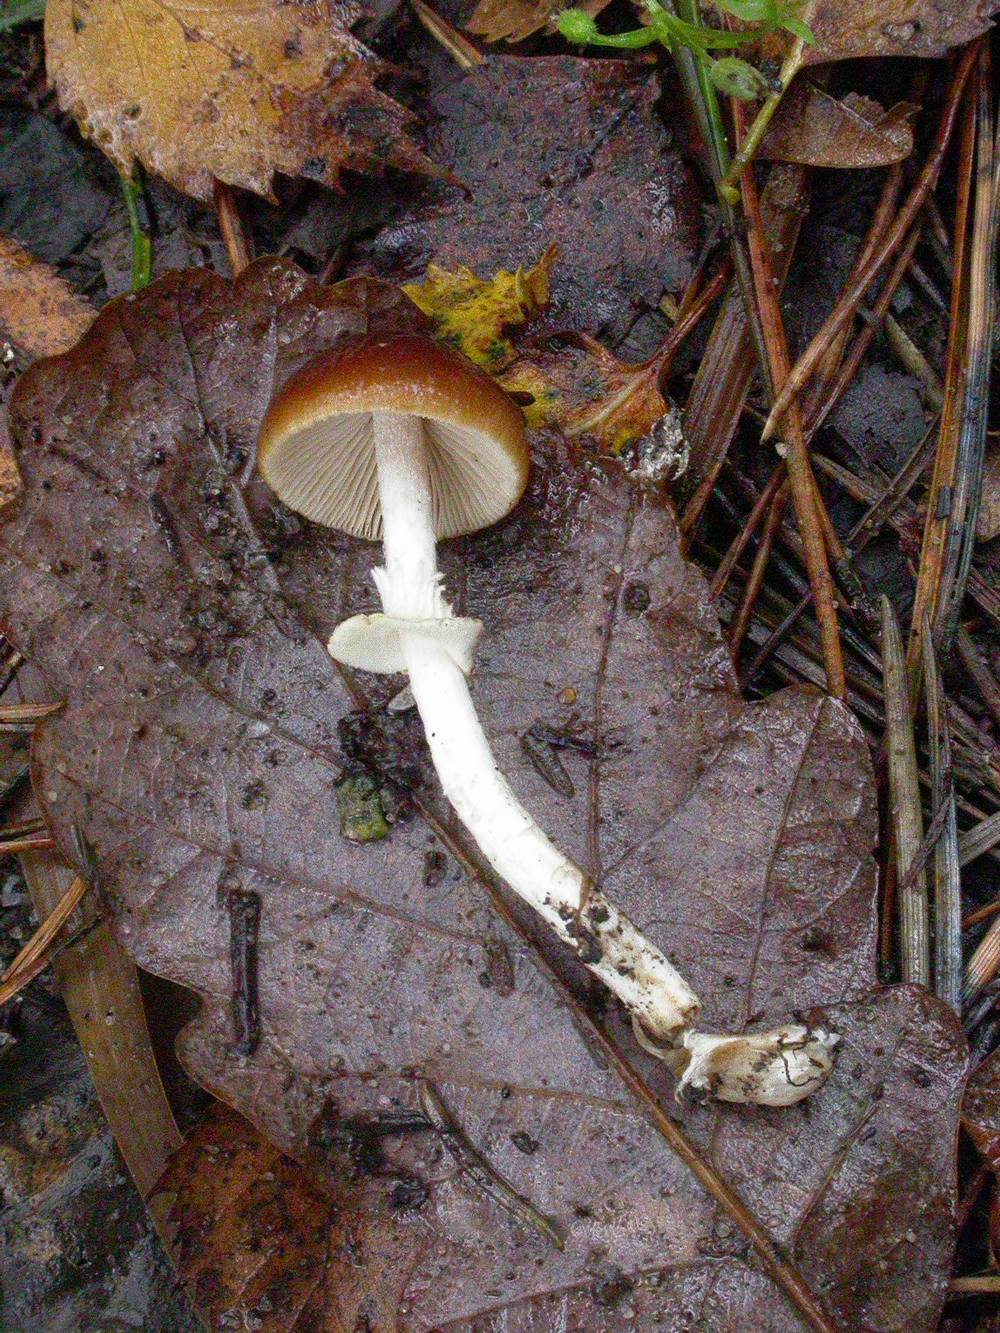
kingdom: Fungi
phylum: Basidiomycota
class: Agaricomycetes
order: Agaricales
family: Bolbitiaceae
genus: Conocybe
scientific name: Conocybe arrhenii
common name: ring-dansehat
